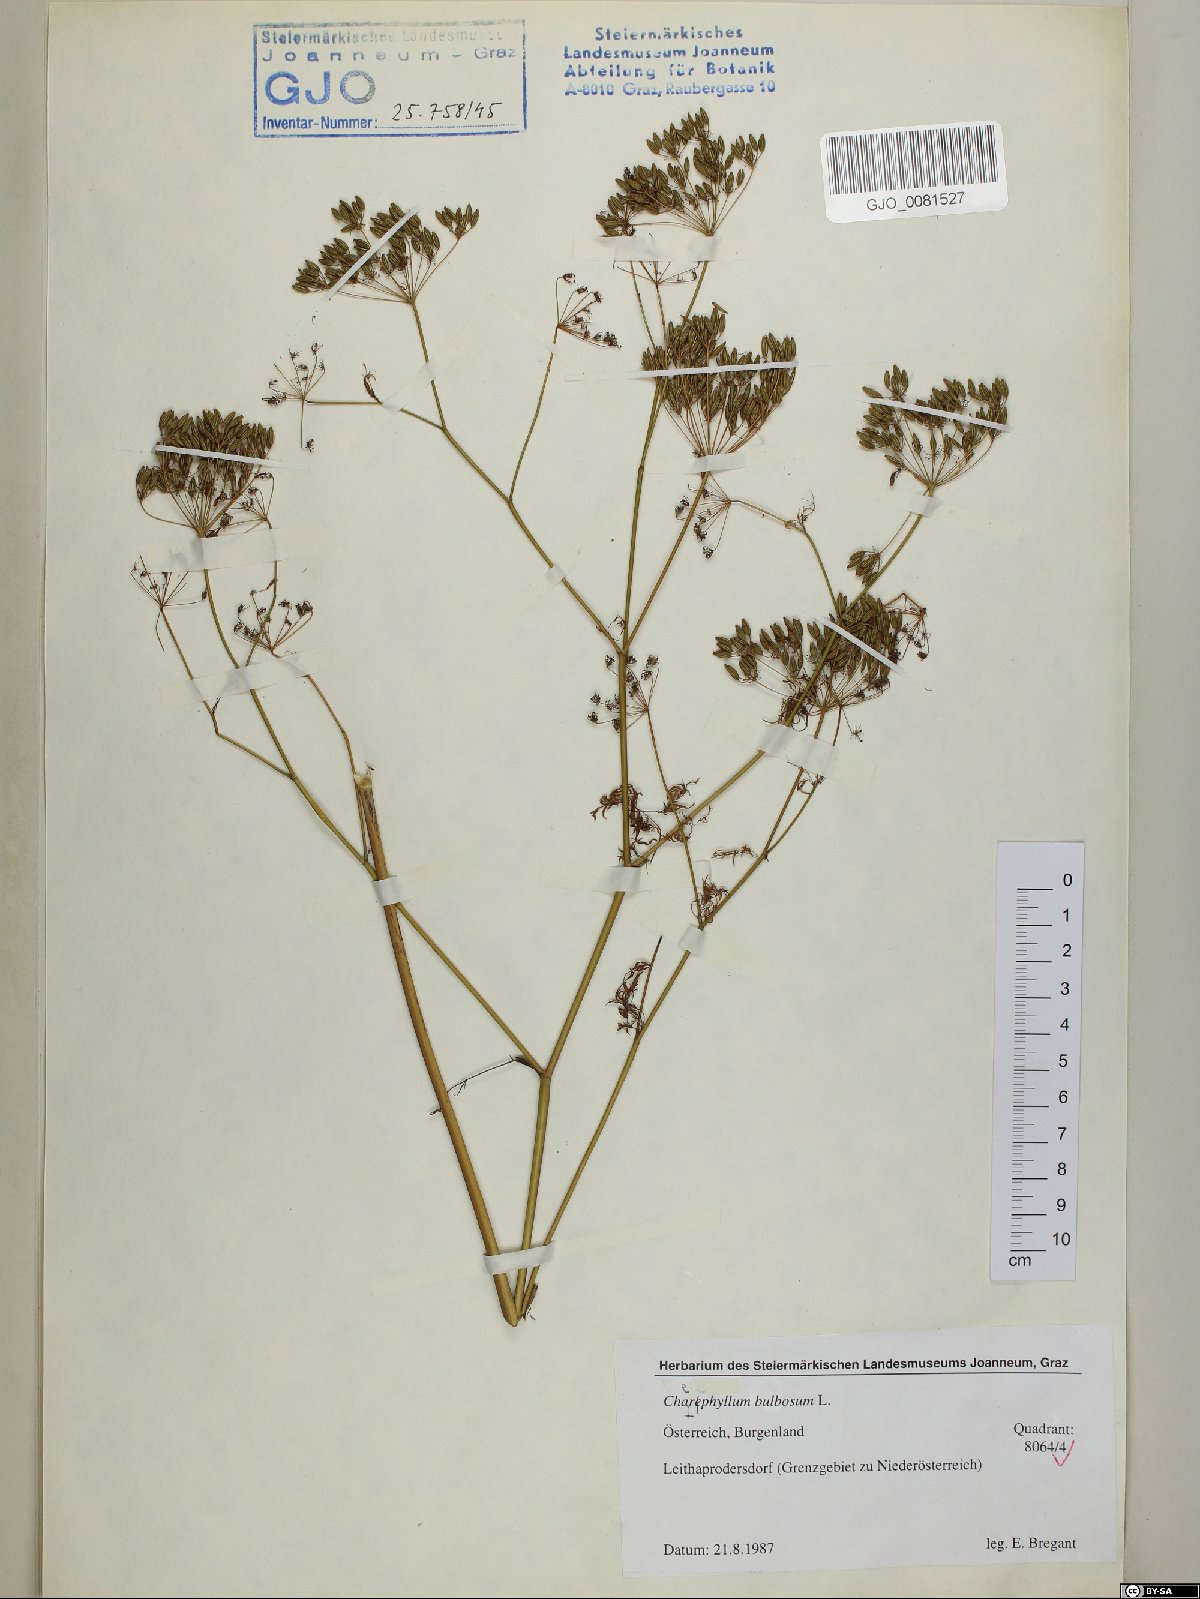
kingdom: Plantae
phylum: Tracheophyta
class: Magnoliopsida
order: Apiales
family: Apiaceae
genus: Chaerophyllum
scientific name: Chaerophyllum bulbosum
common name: Bulbous chervil
